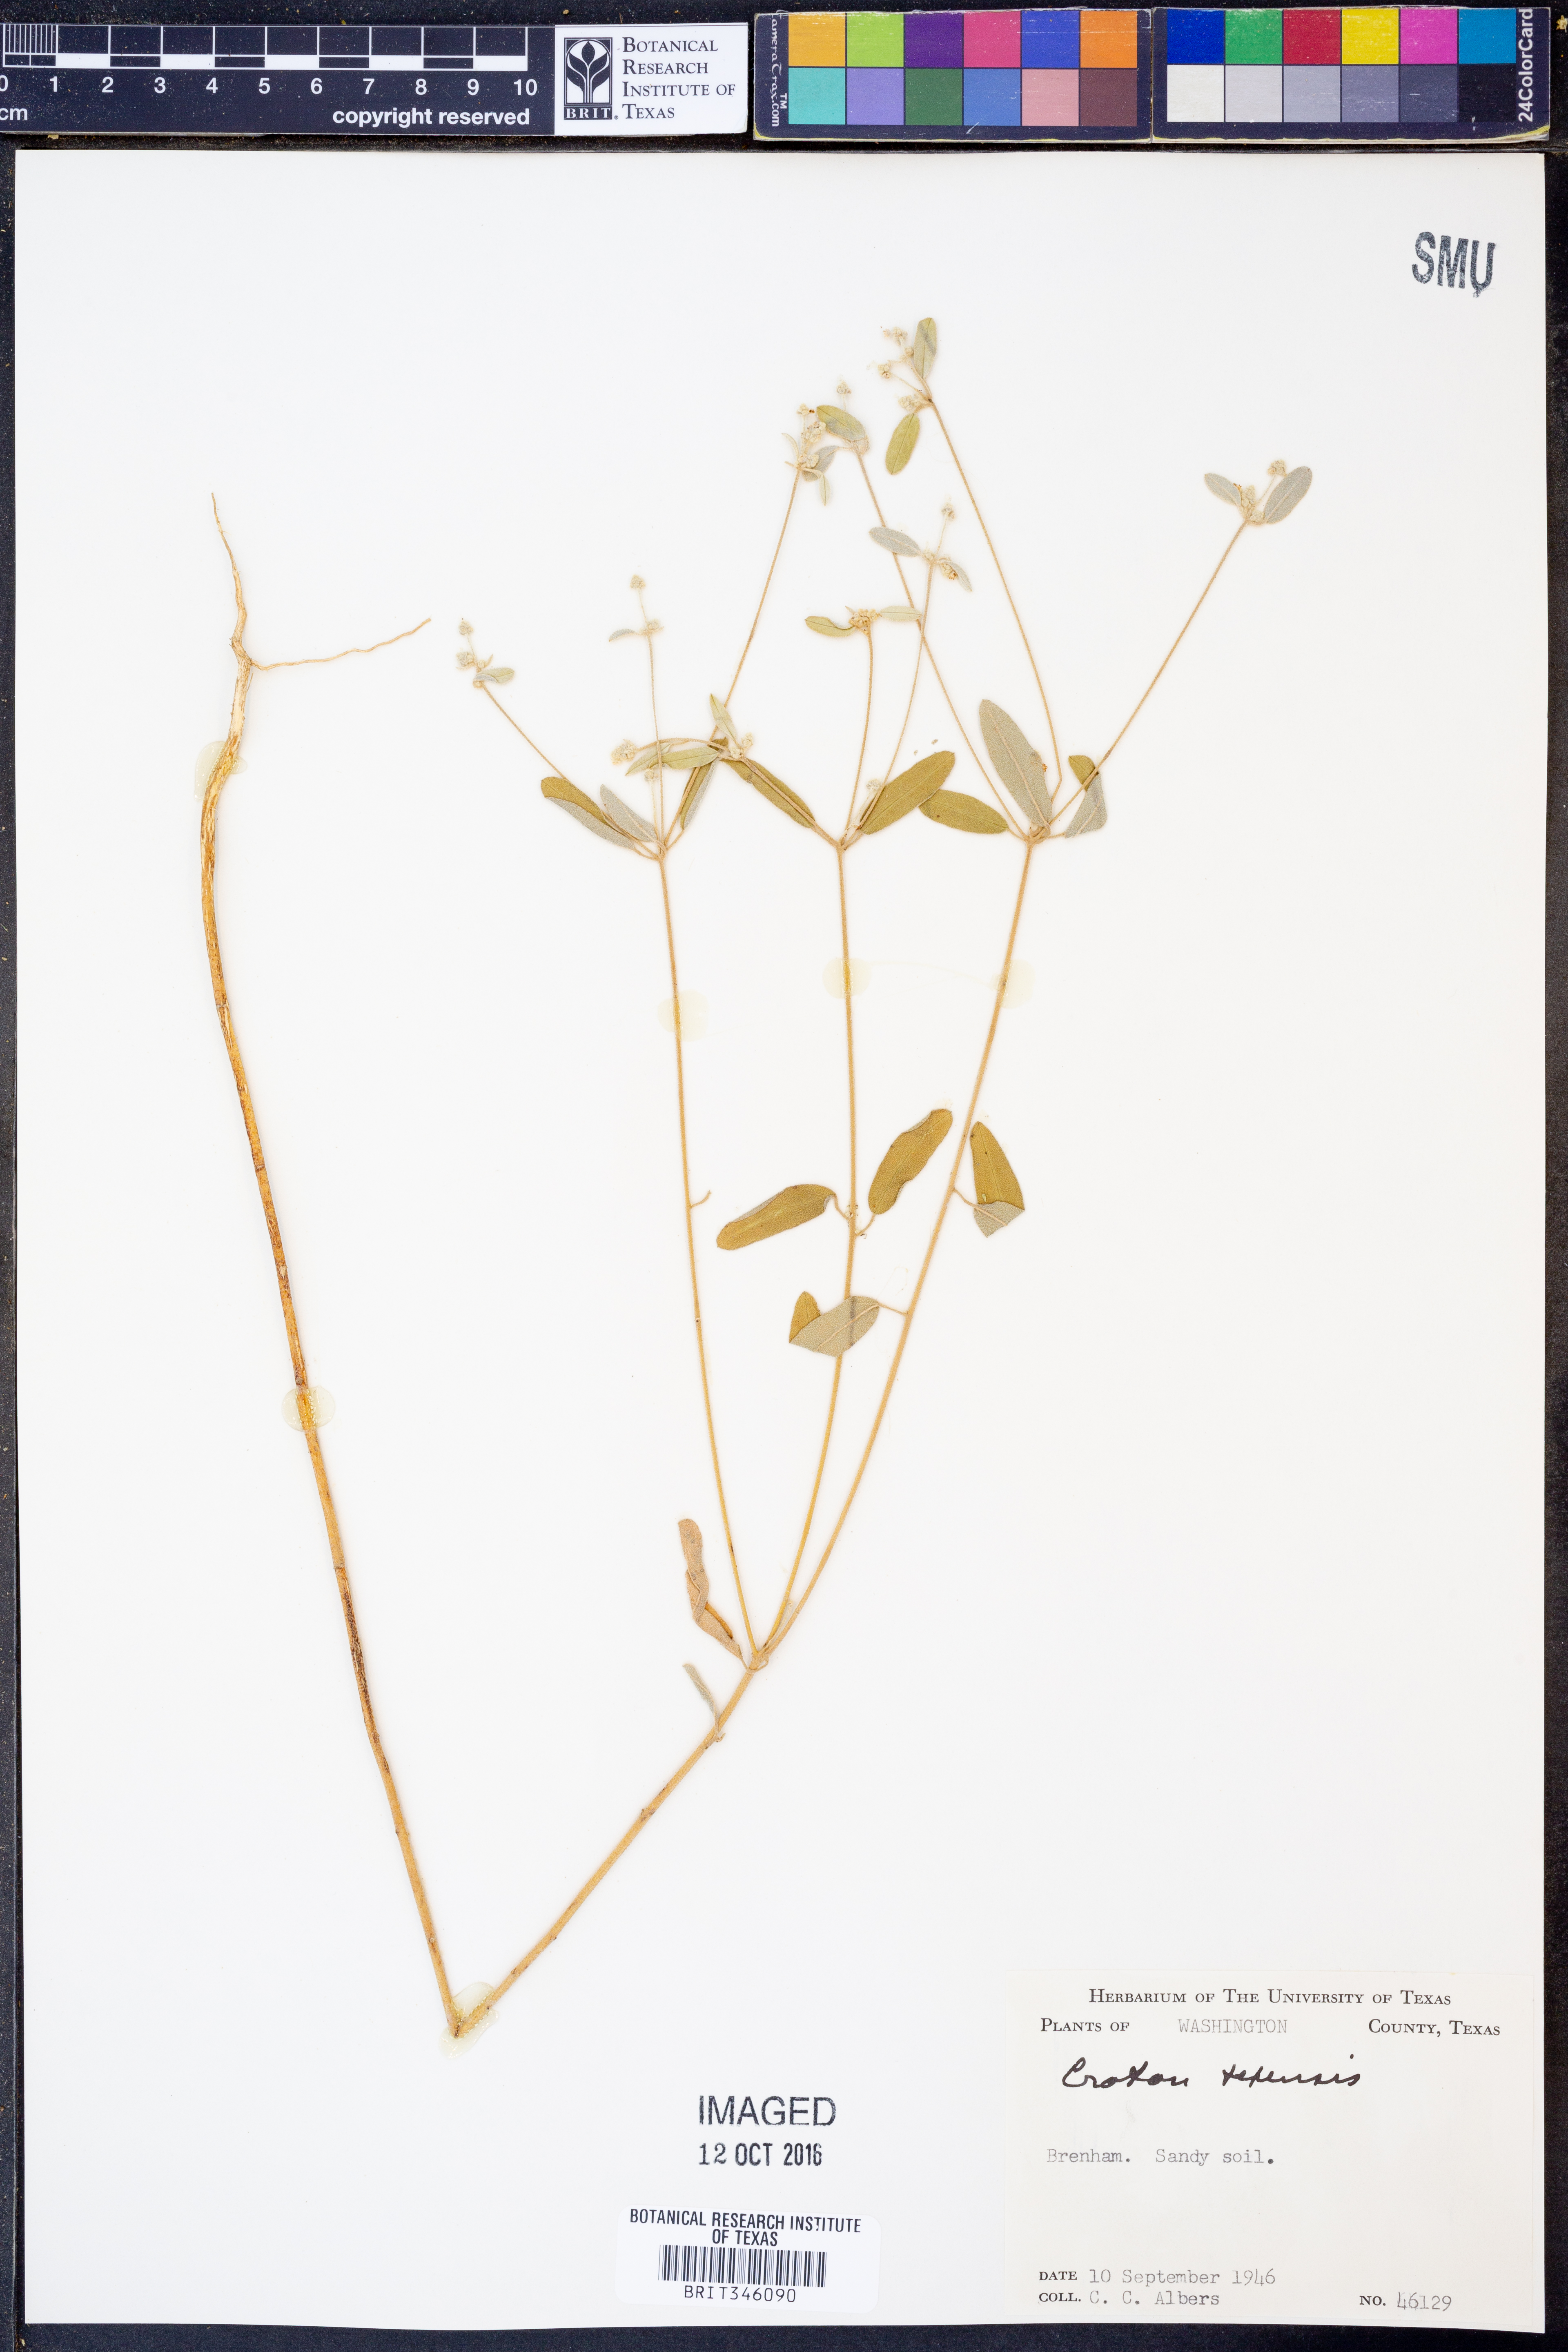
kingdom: Plantae
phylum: Tracheophyta
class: Magnoliopsida
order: Malpighiales
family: Euphorbiaceae
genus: Croton
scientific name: Croton texensis
